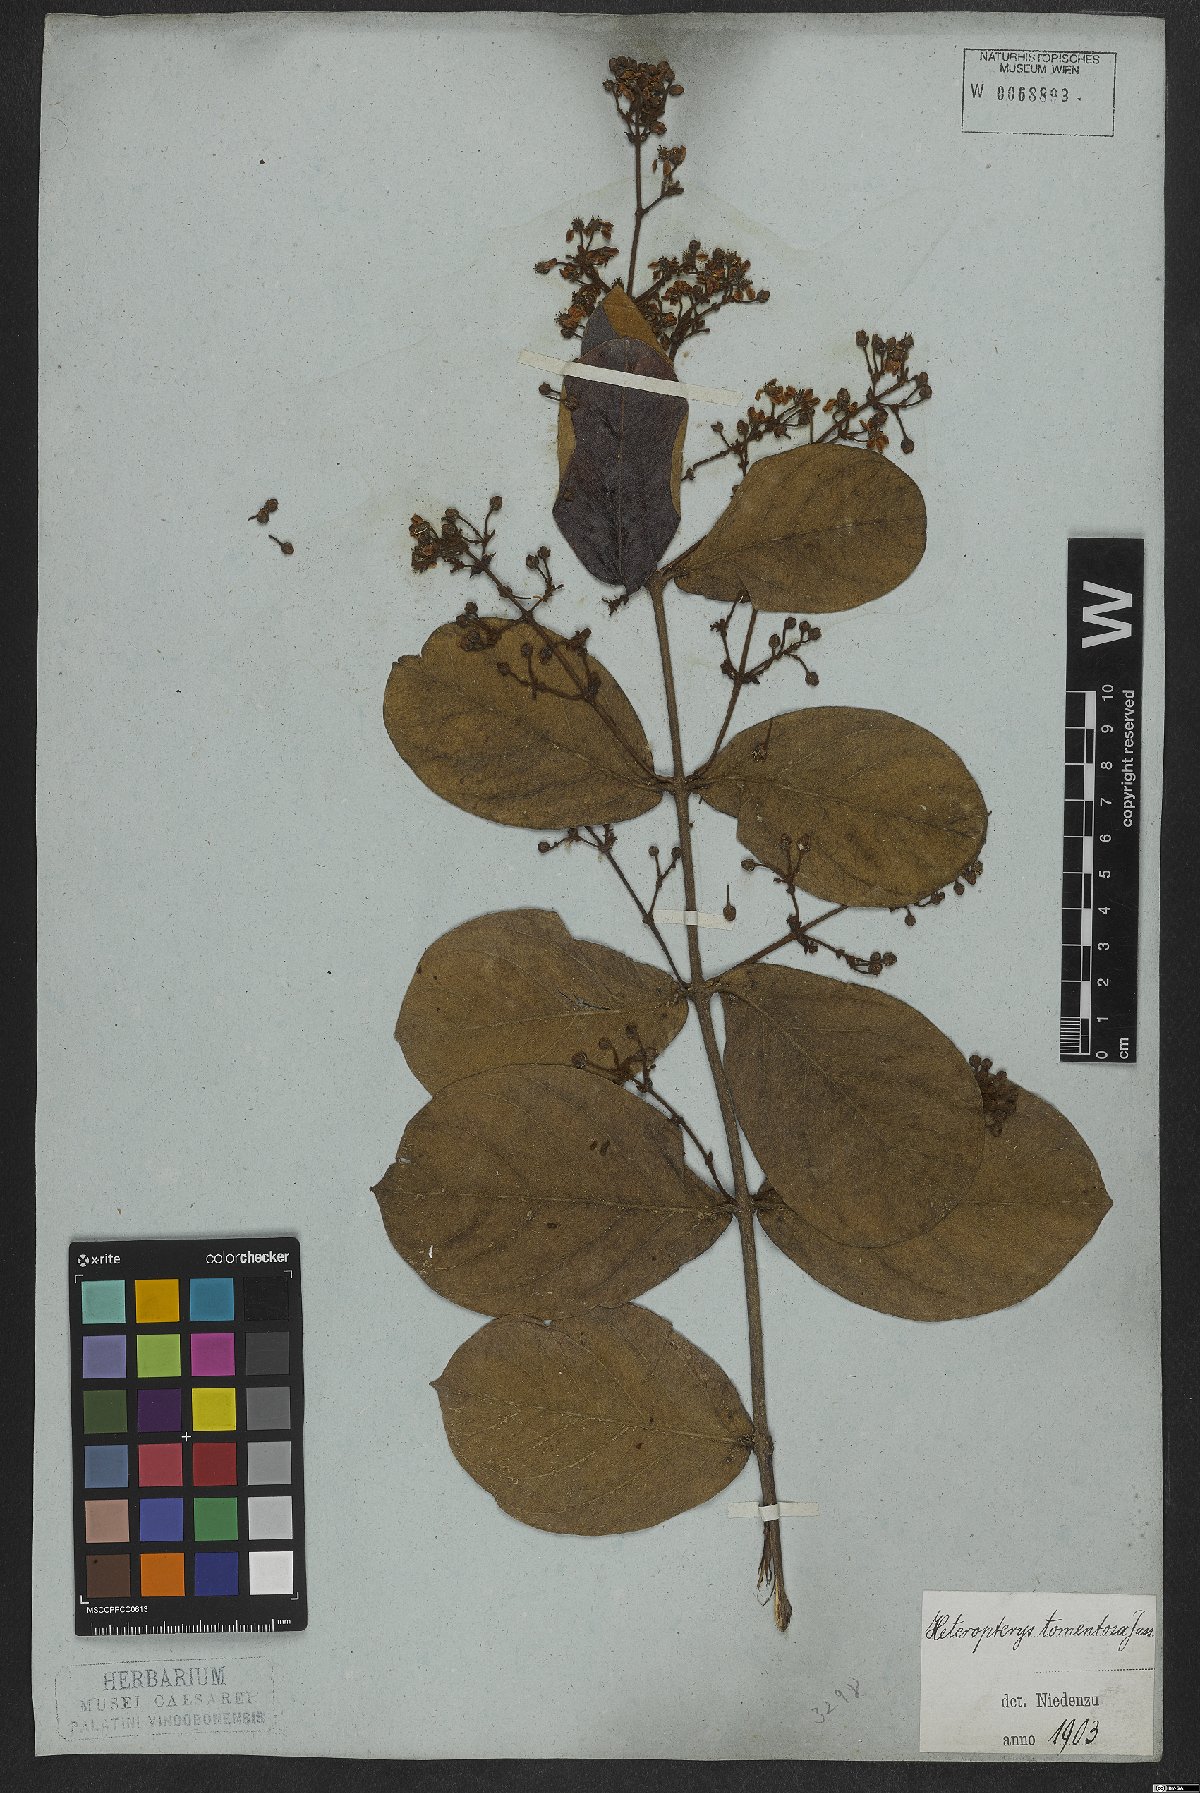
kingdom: Plantae
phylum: Tracheophyta
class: Magnoliopsida
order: Malpighiales
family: Malpighiaceae
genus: Heteropterys
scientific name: Heteropterys tomentosa
